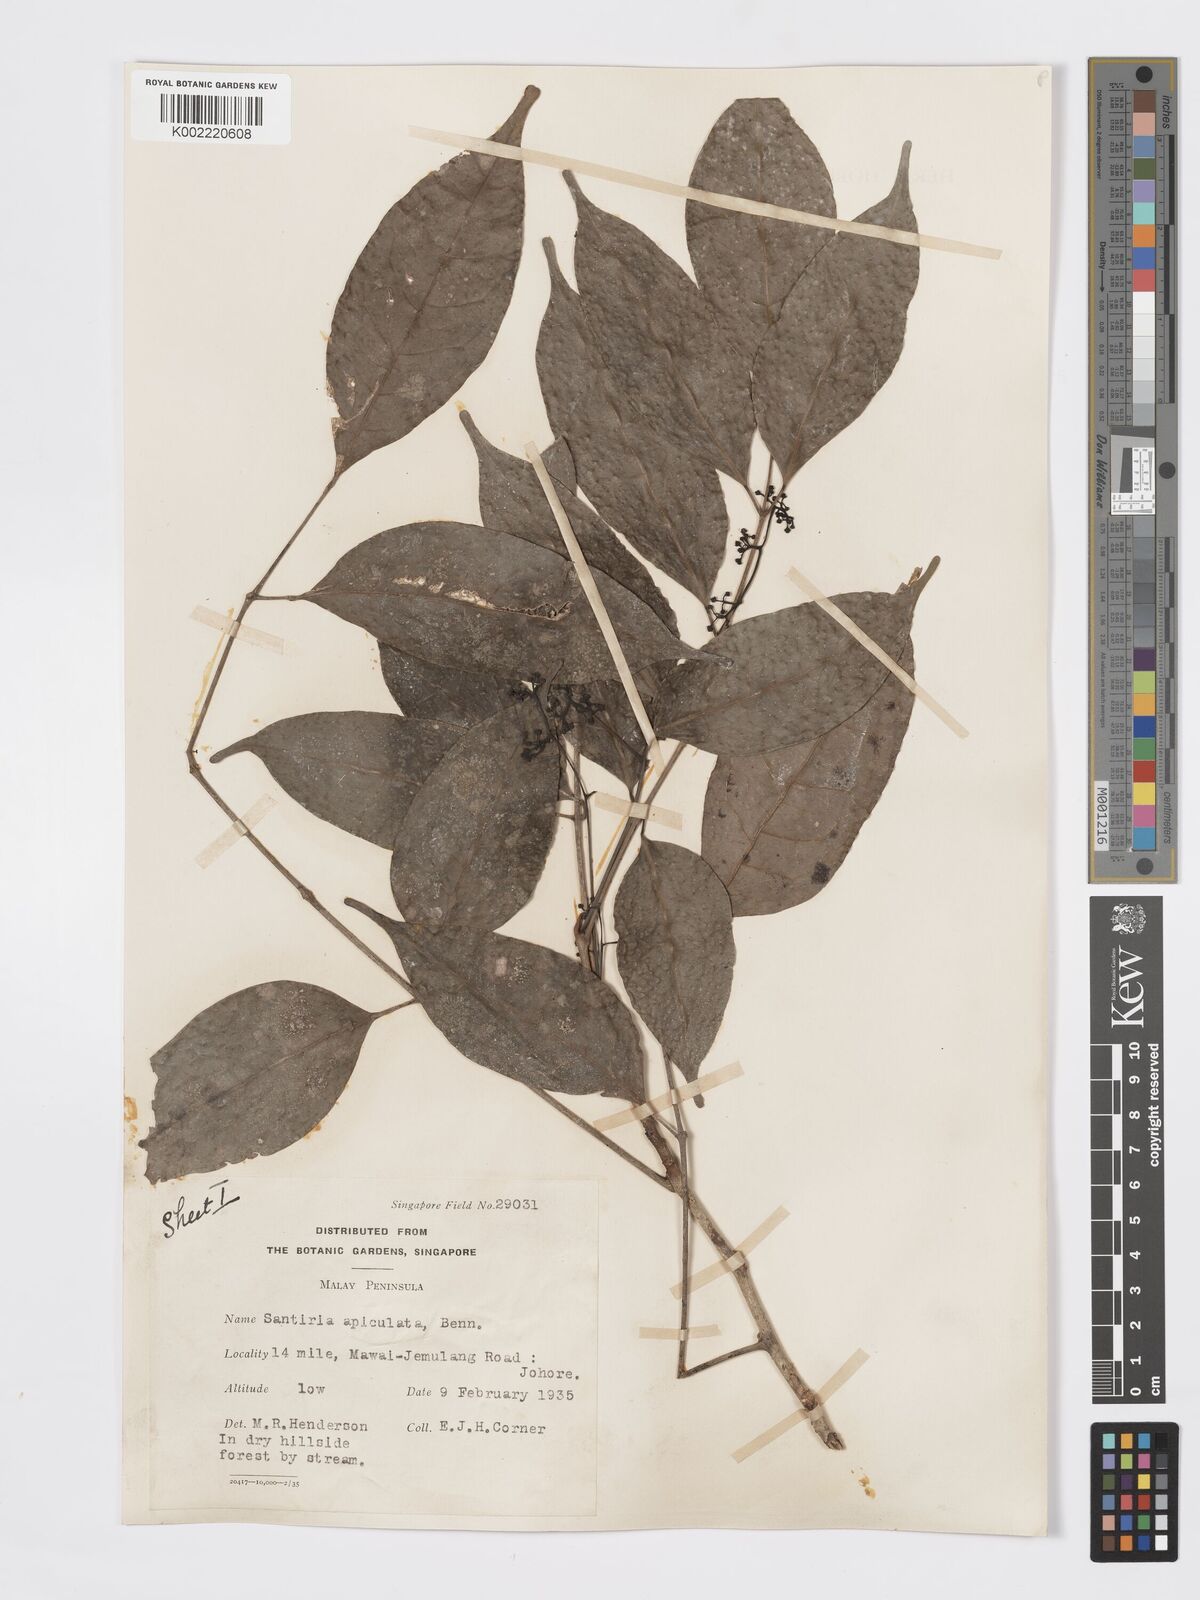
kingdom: Plantae
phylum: Tracheophyta
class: Magnoliopsida
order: Sapindales
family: Burseraceae
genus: Santiria
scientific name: Santiria apiculata
